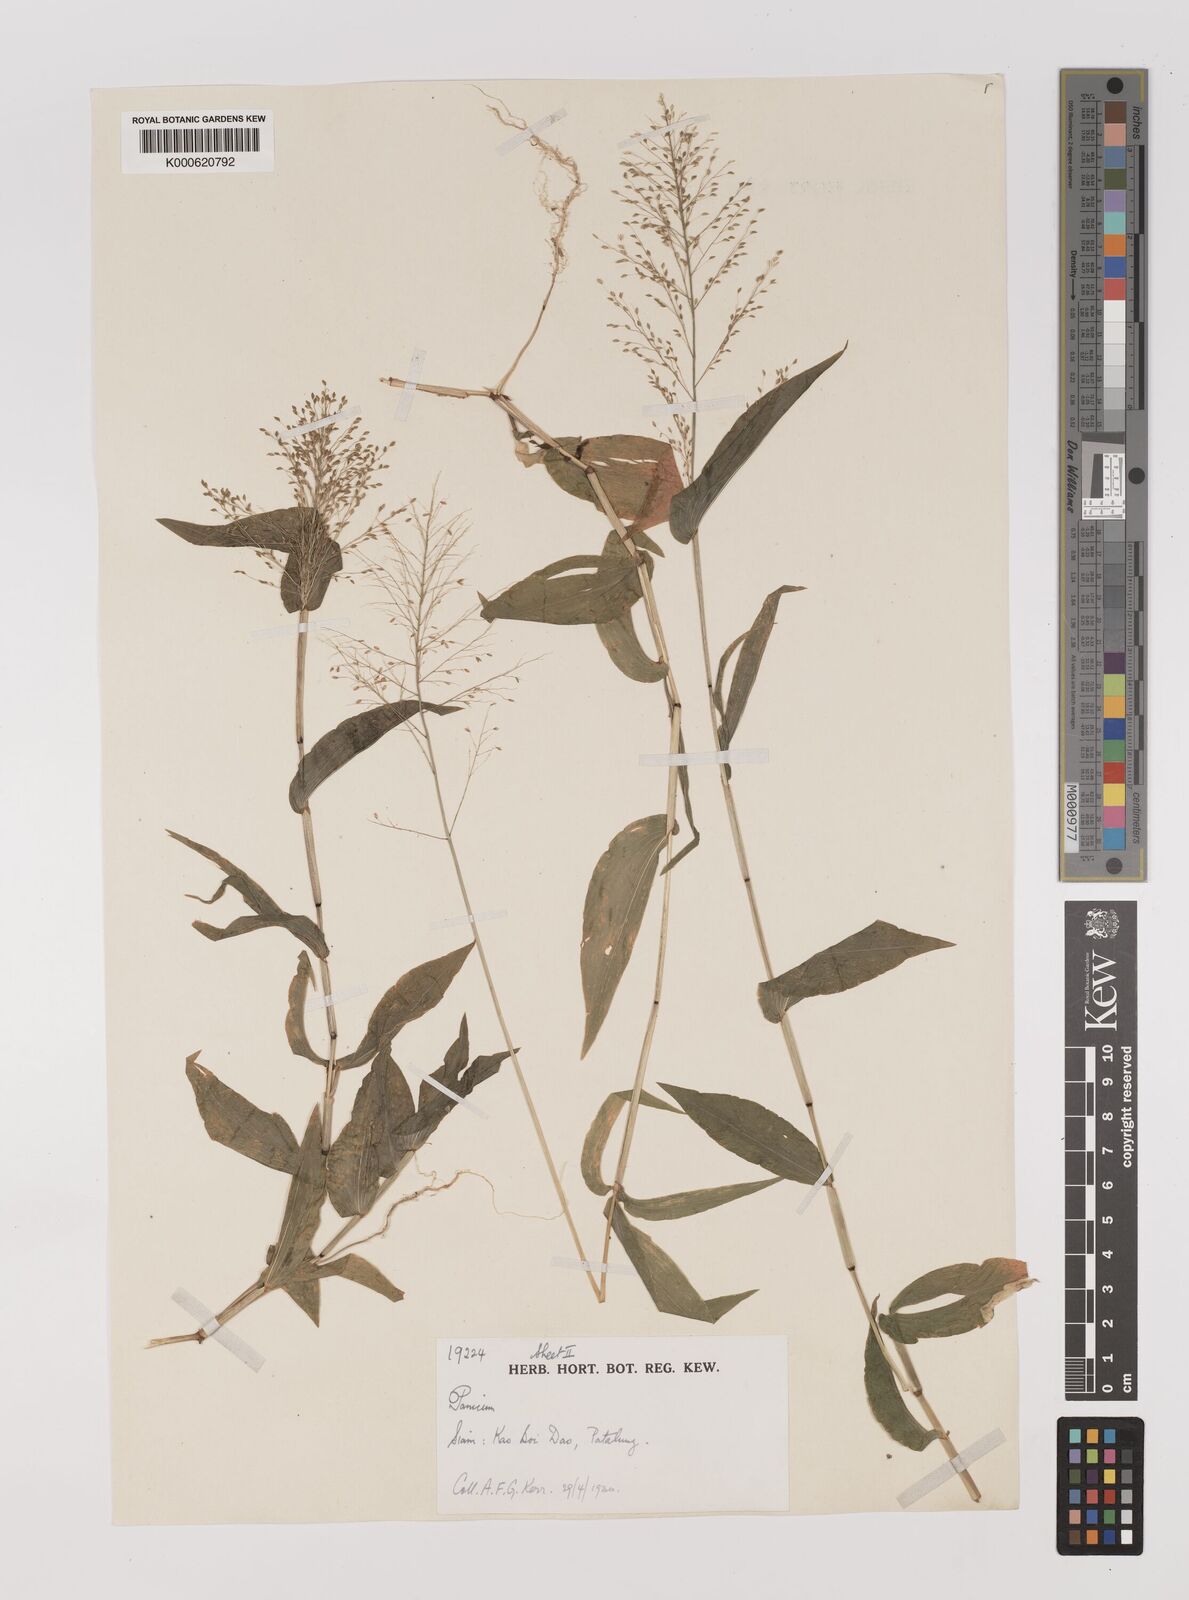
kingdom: Plantae
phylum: Tracheophyta
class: Liliopsida
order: Poales
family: Poaceae
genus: Panicum
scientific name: Panicum brevifolium
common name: Shortleaf panic grass
